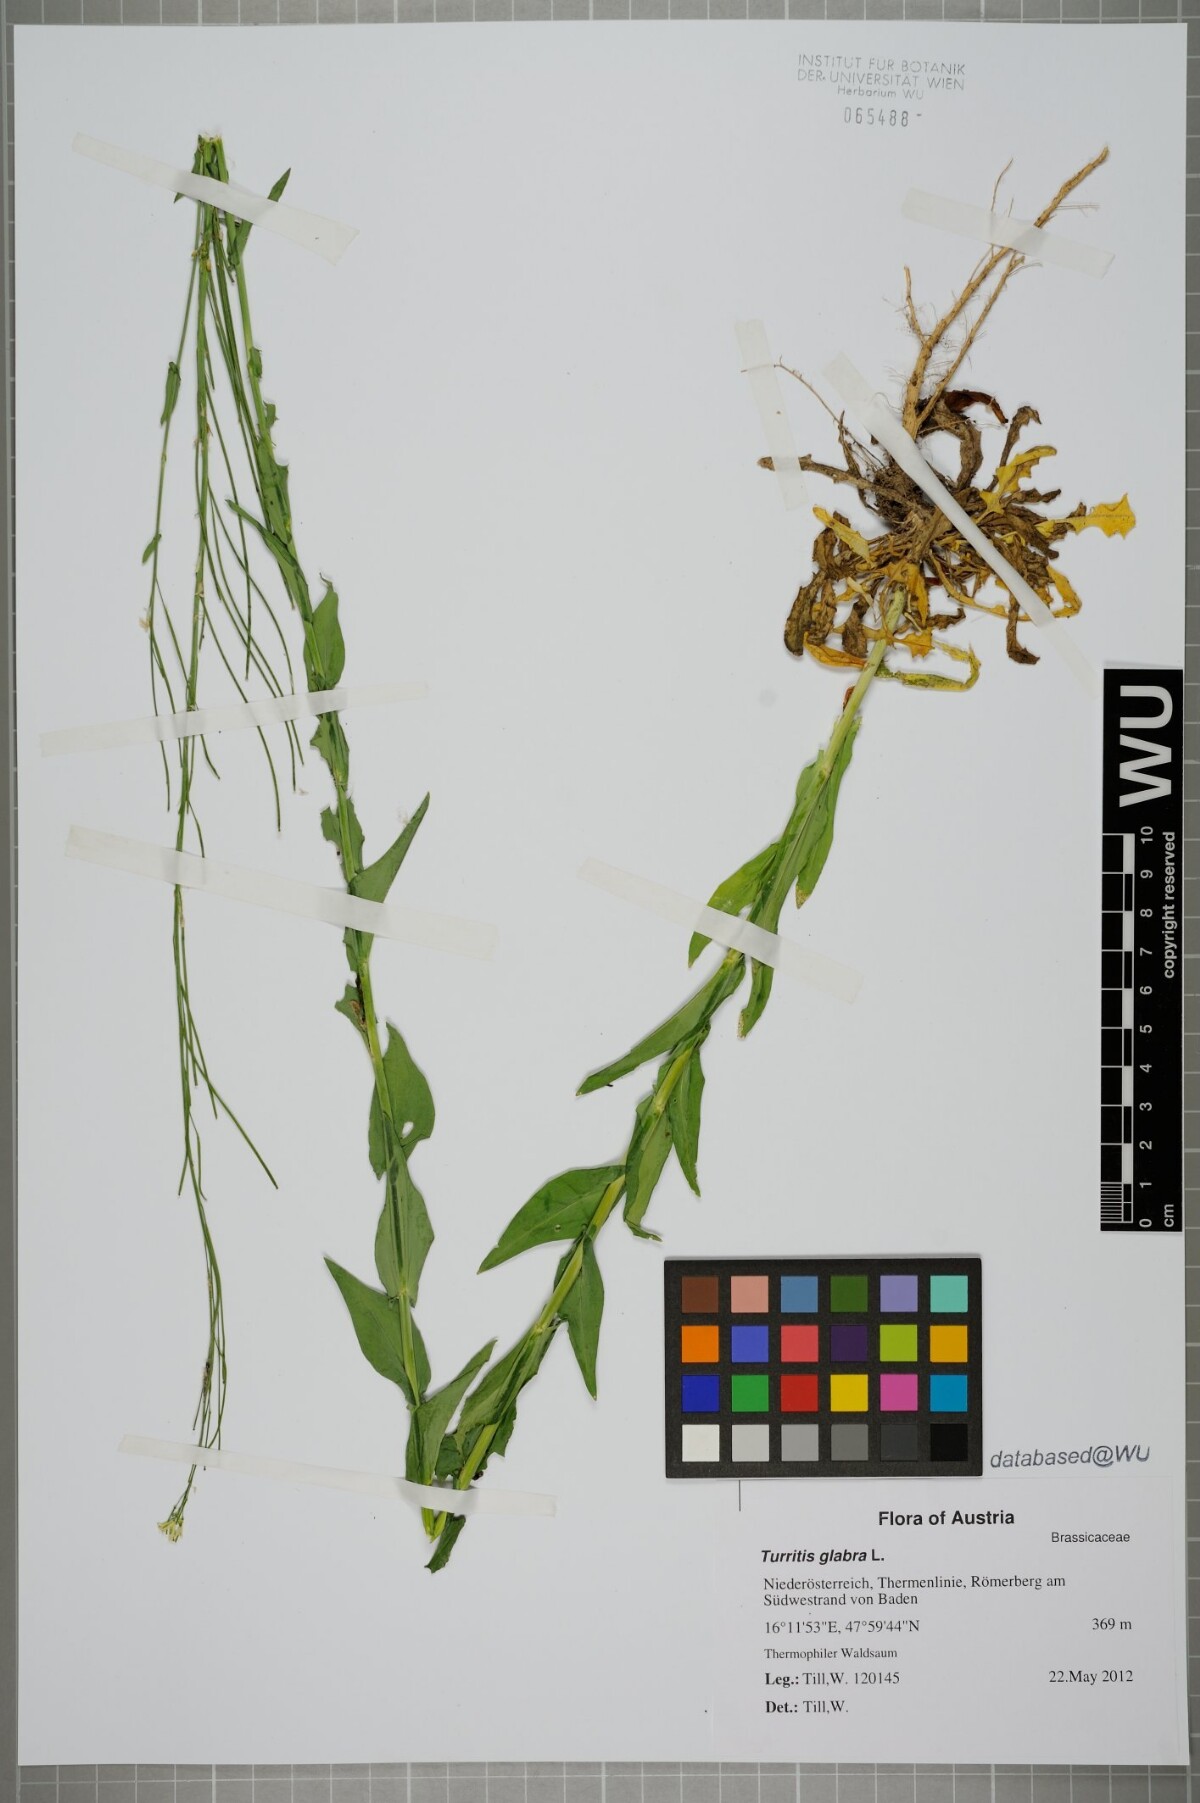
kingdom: Plantae
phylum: Tracheophyta
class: Magnoliopsida
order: Brassicales
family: Brassicaceae
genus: Turritis
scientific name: Turritis glabra
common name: Tower rockcress
